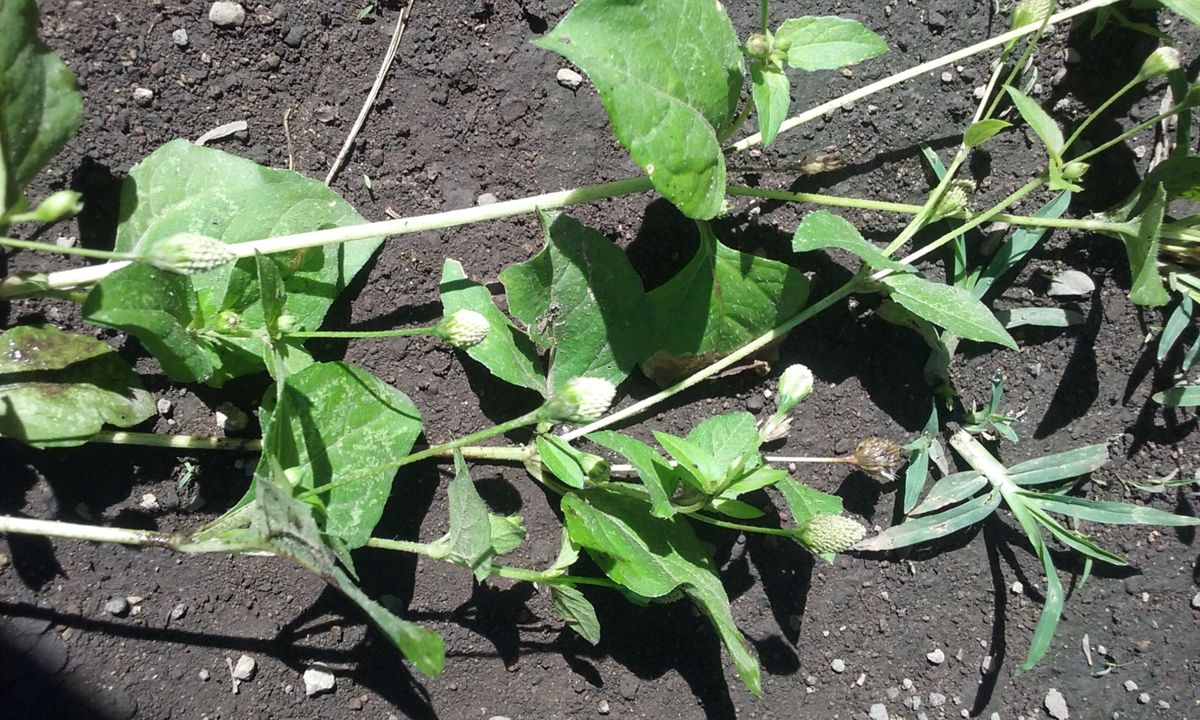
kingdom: Plantae
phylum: Tracheophyta
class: Magnoliopsida
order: Asterales
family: Asteraceae
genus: Acmella
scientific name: Acmella radicans
